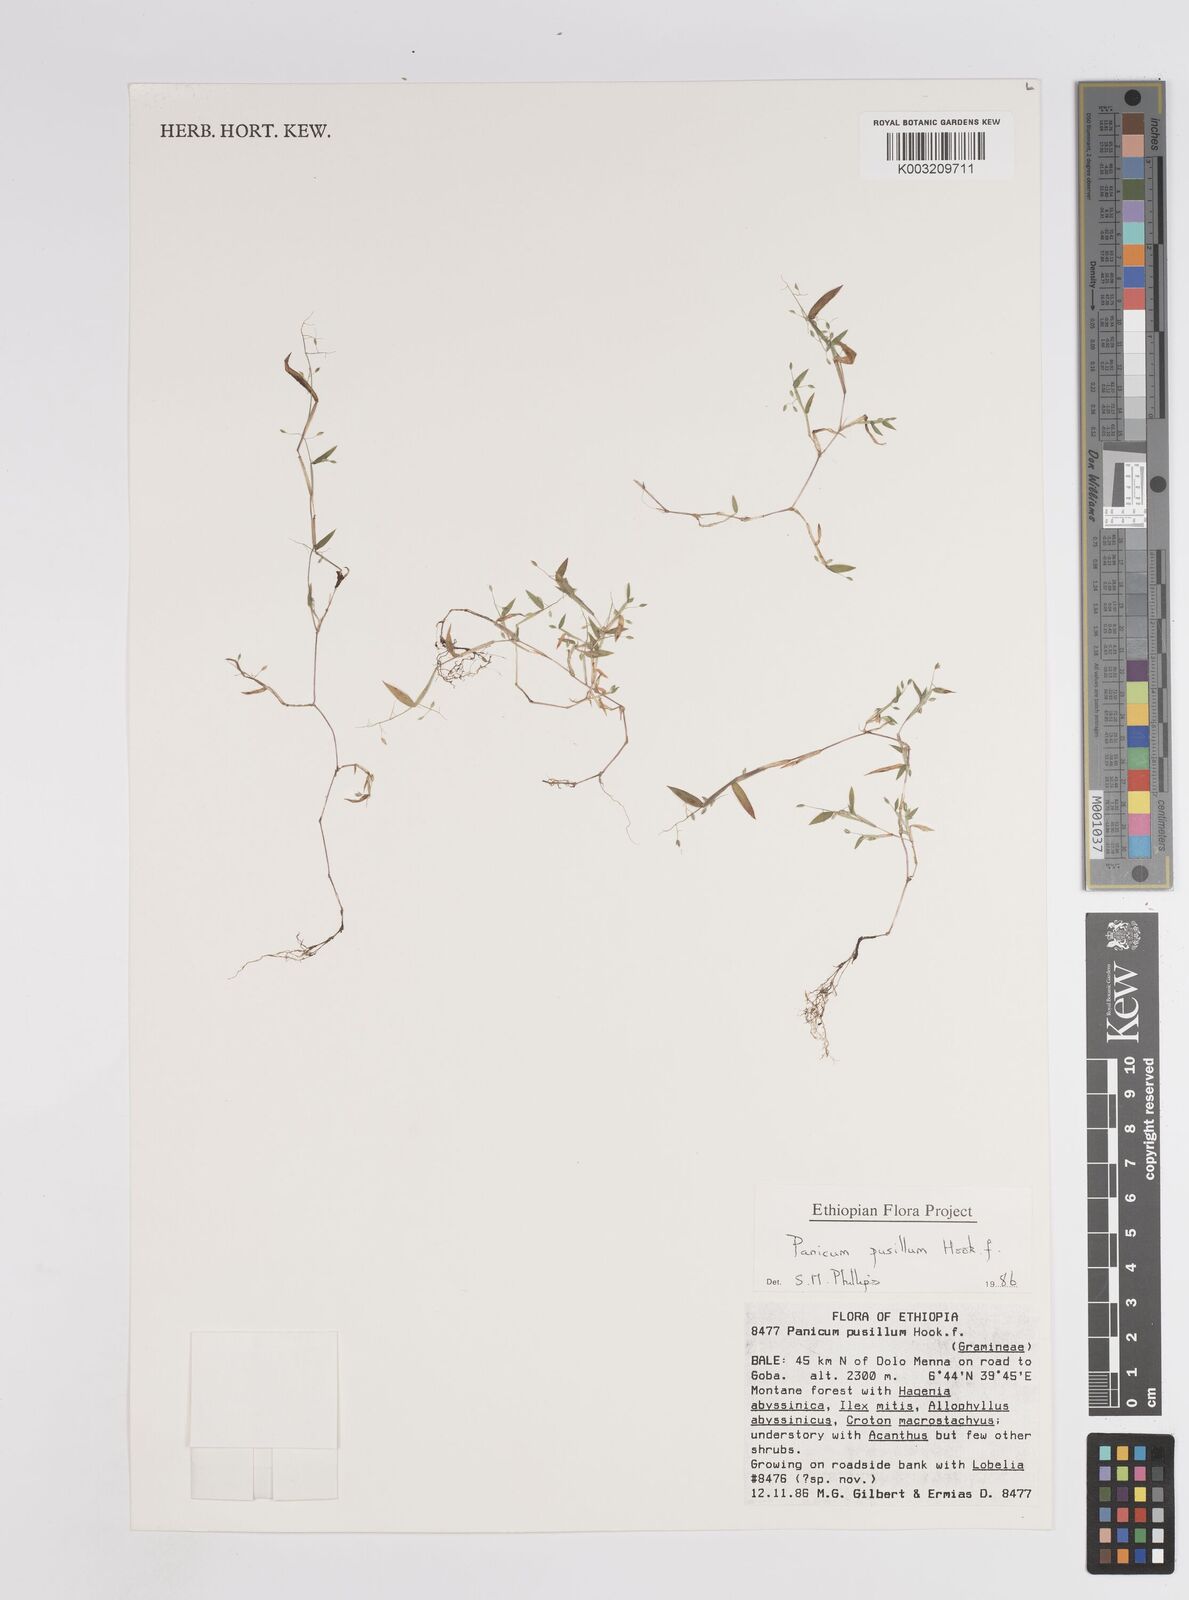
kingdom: Plantae
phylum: Tracheophyta
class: Liliopsida
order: Poales
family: Poaceae
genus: Panicum
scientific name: Panicum pusillum
